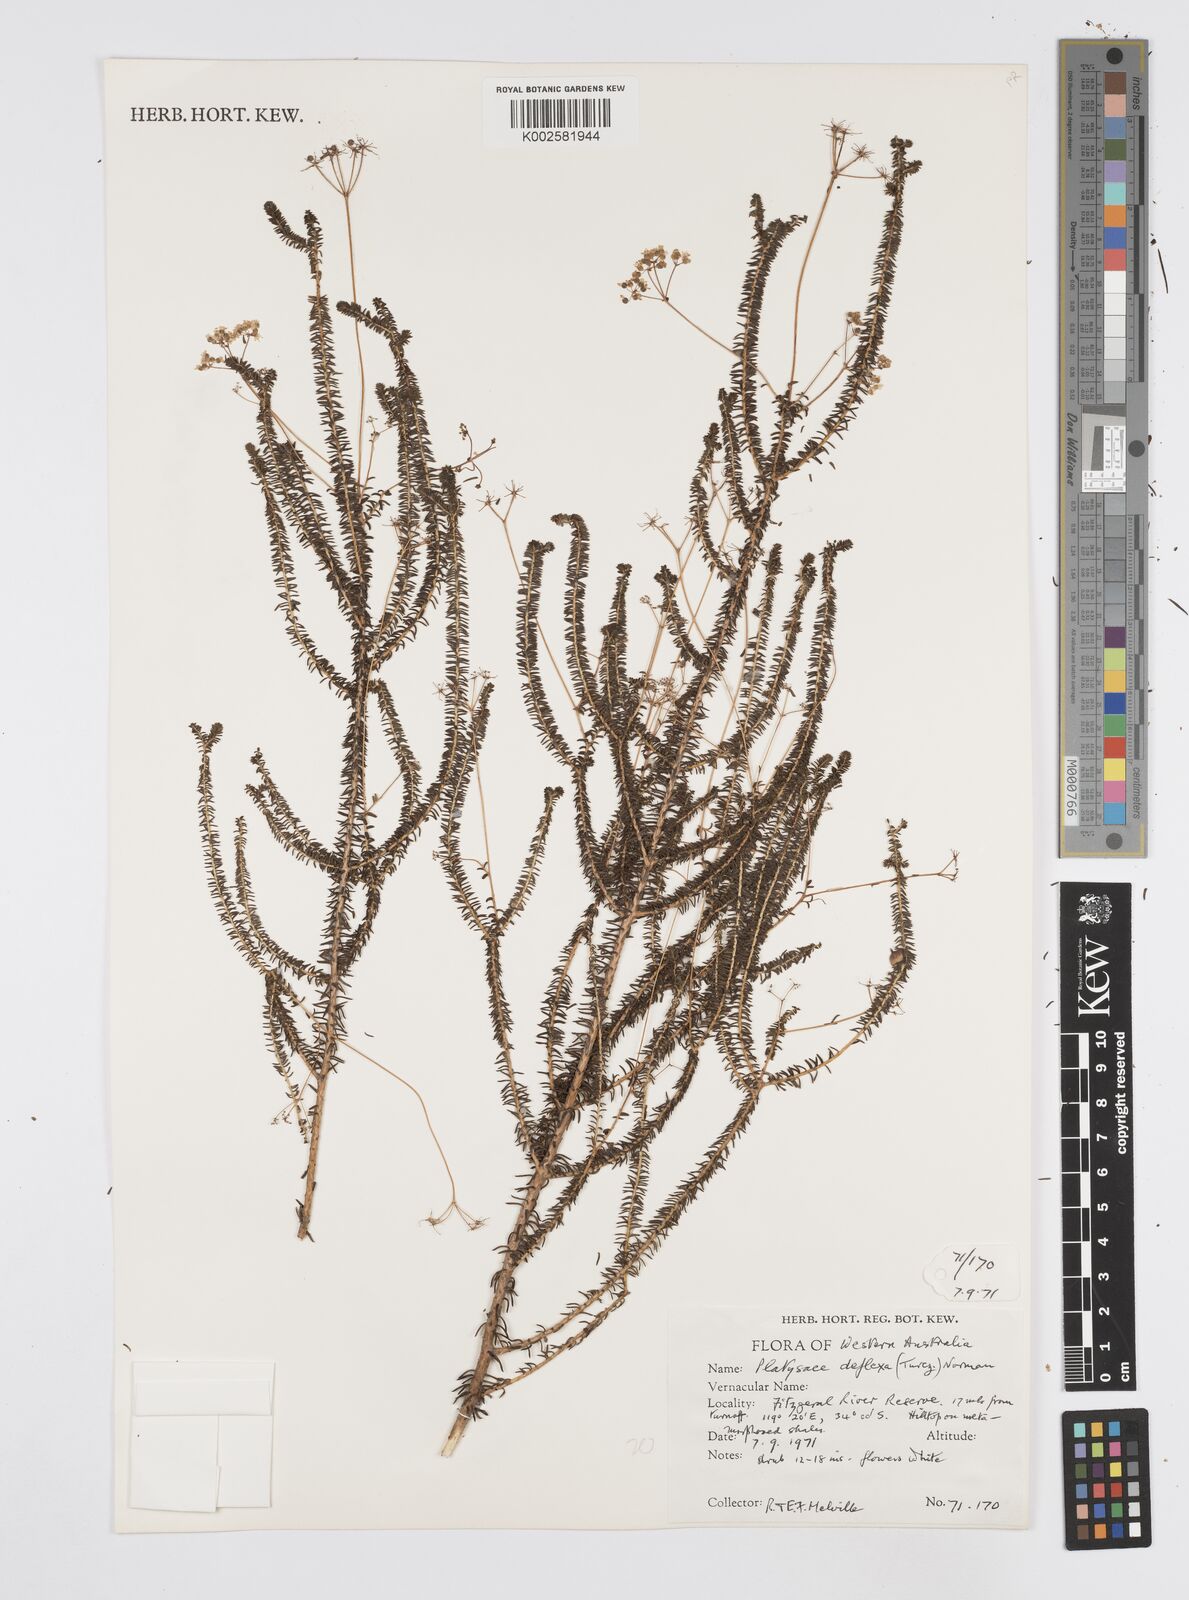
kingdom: Plantae
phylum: Tracheophyta
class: Magnoliopsida
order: Apiales
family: Apiaceae
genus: Platysace
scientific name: Platysace deflexa
